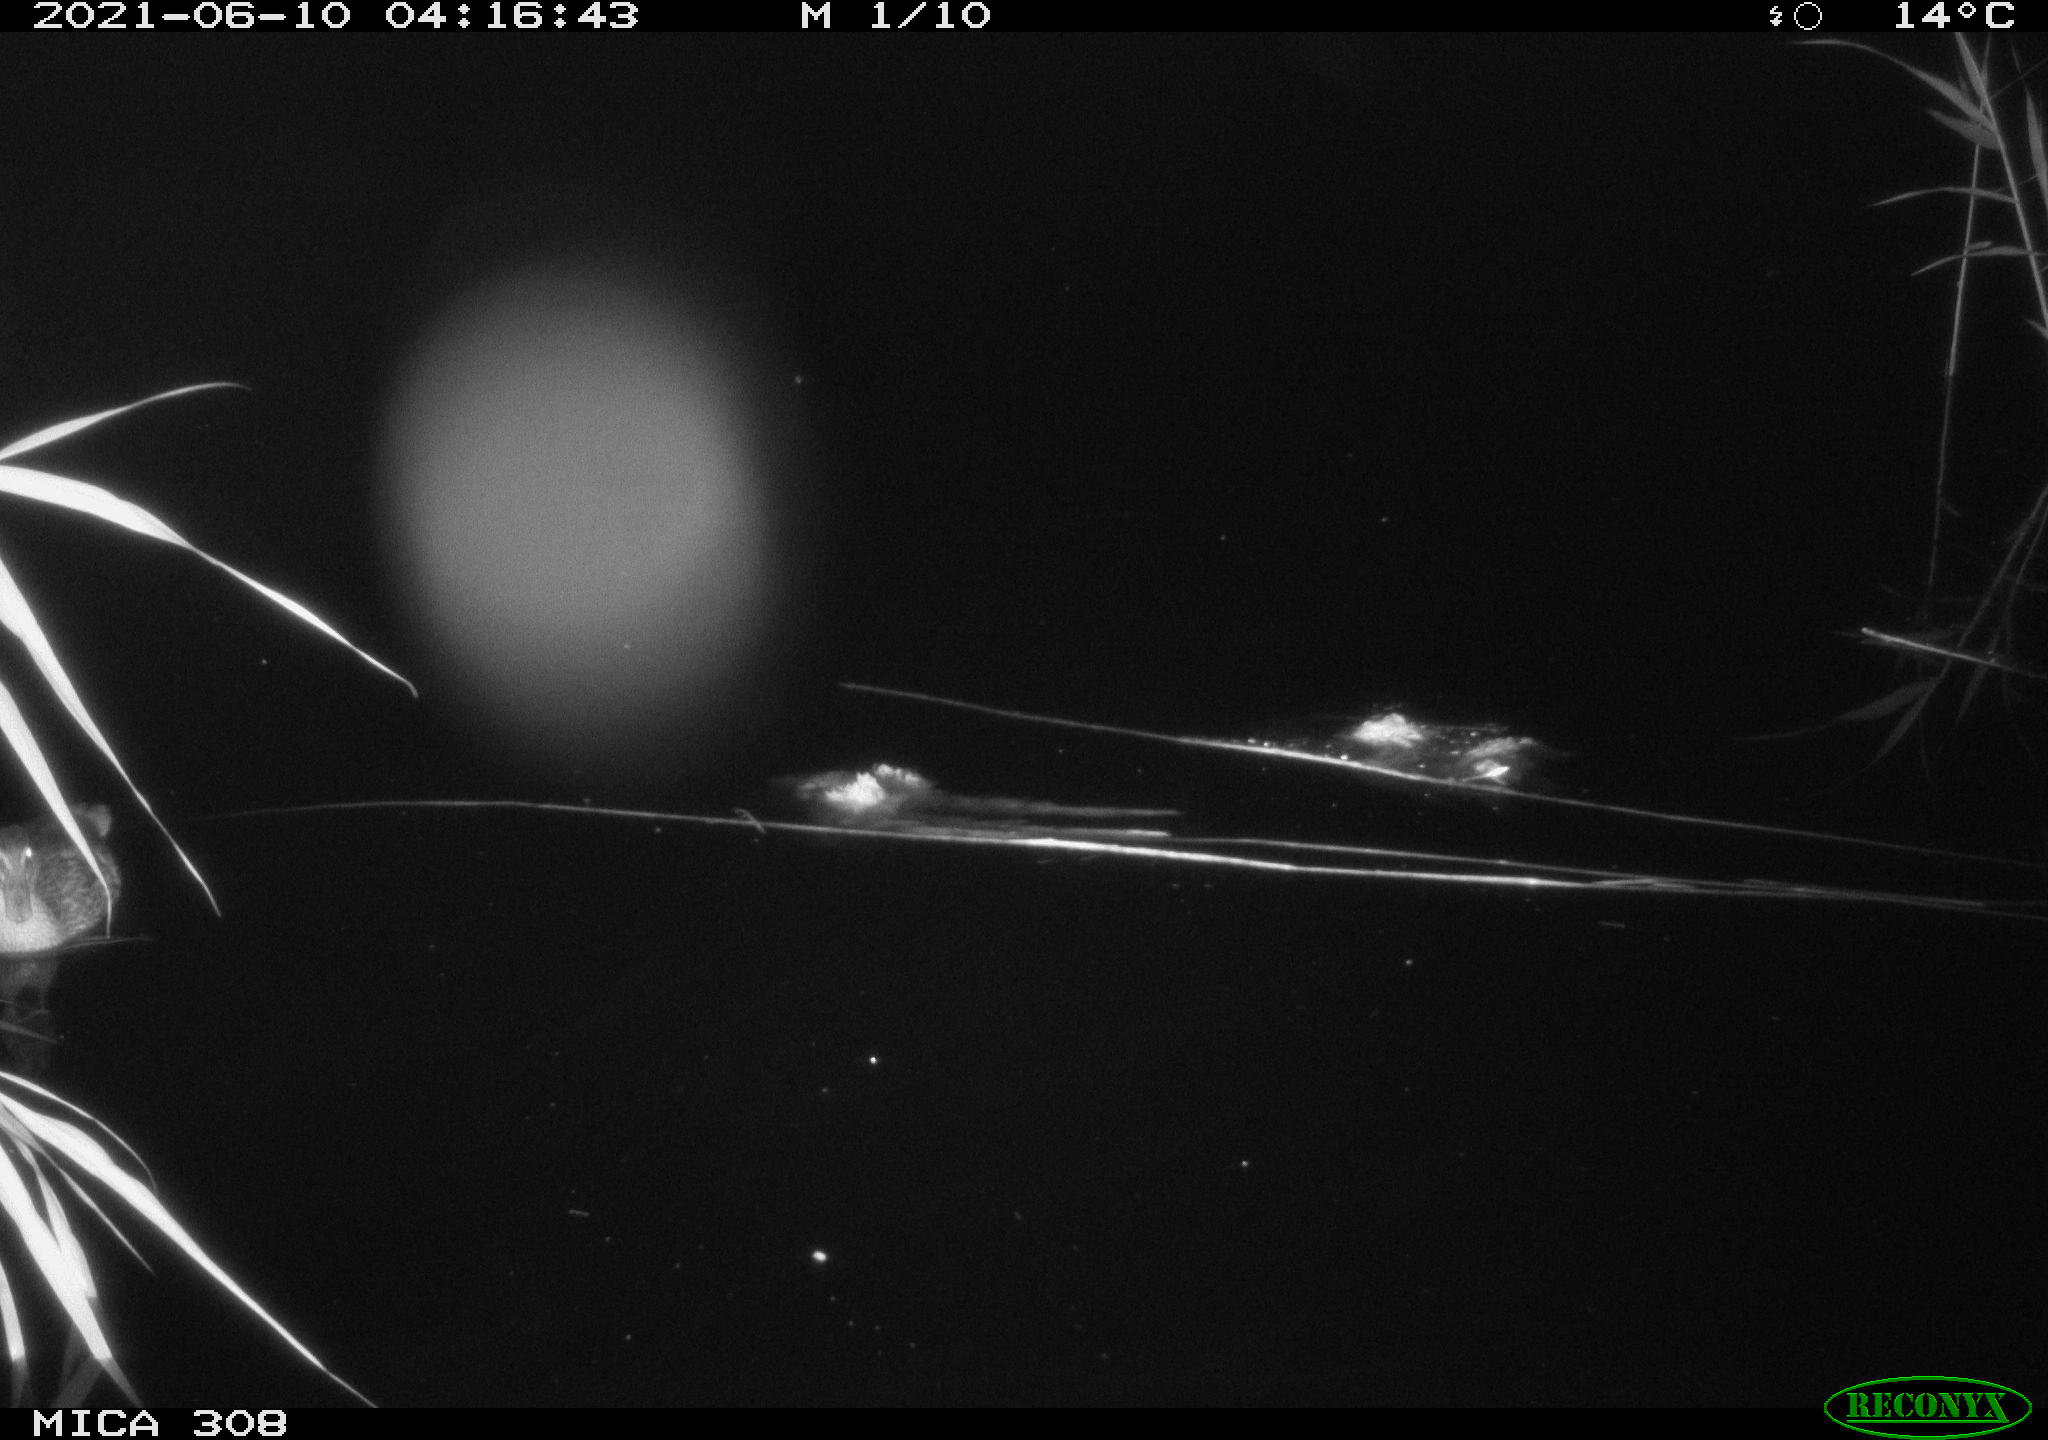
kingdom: Animalia
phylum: Chordata
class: Aves
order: Anseriformes
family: Anatidae
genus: Anas
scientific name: Anas platyrhynchos
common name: Mallard
